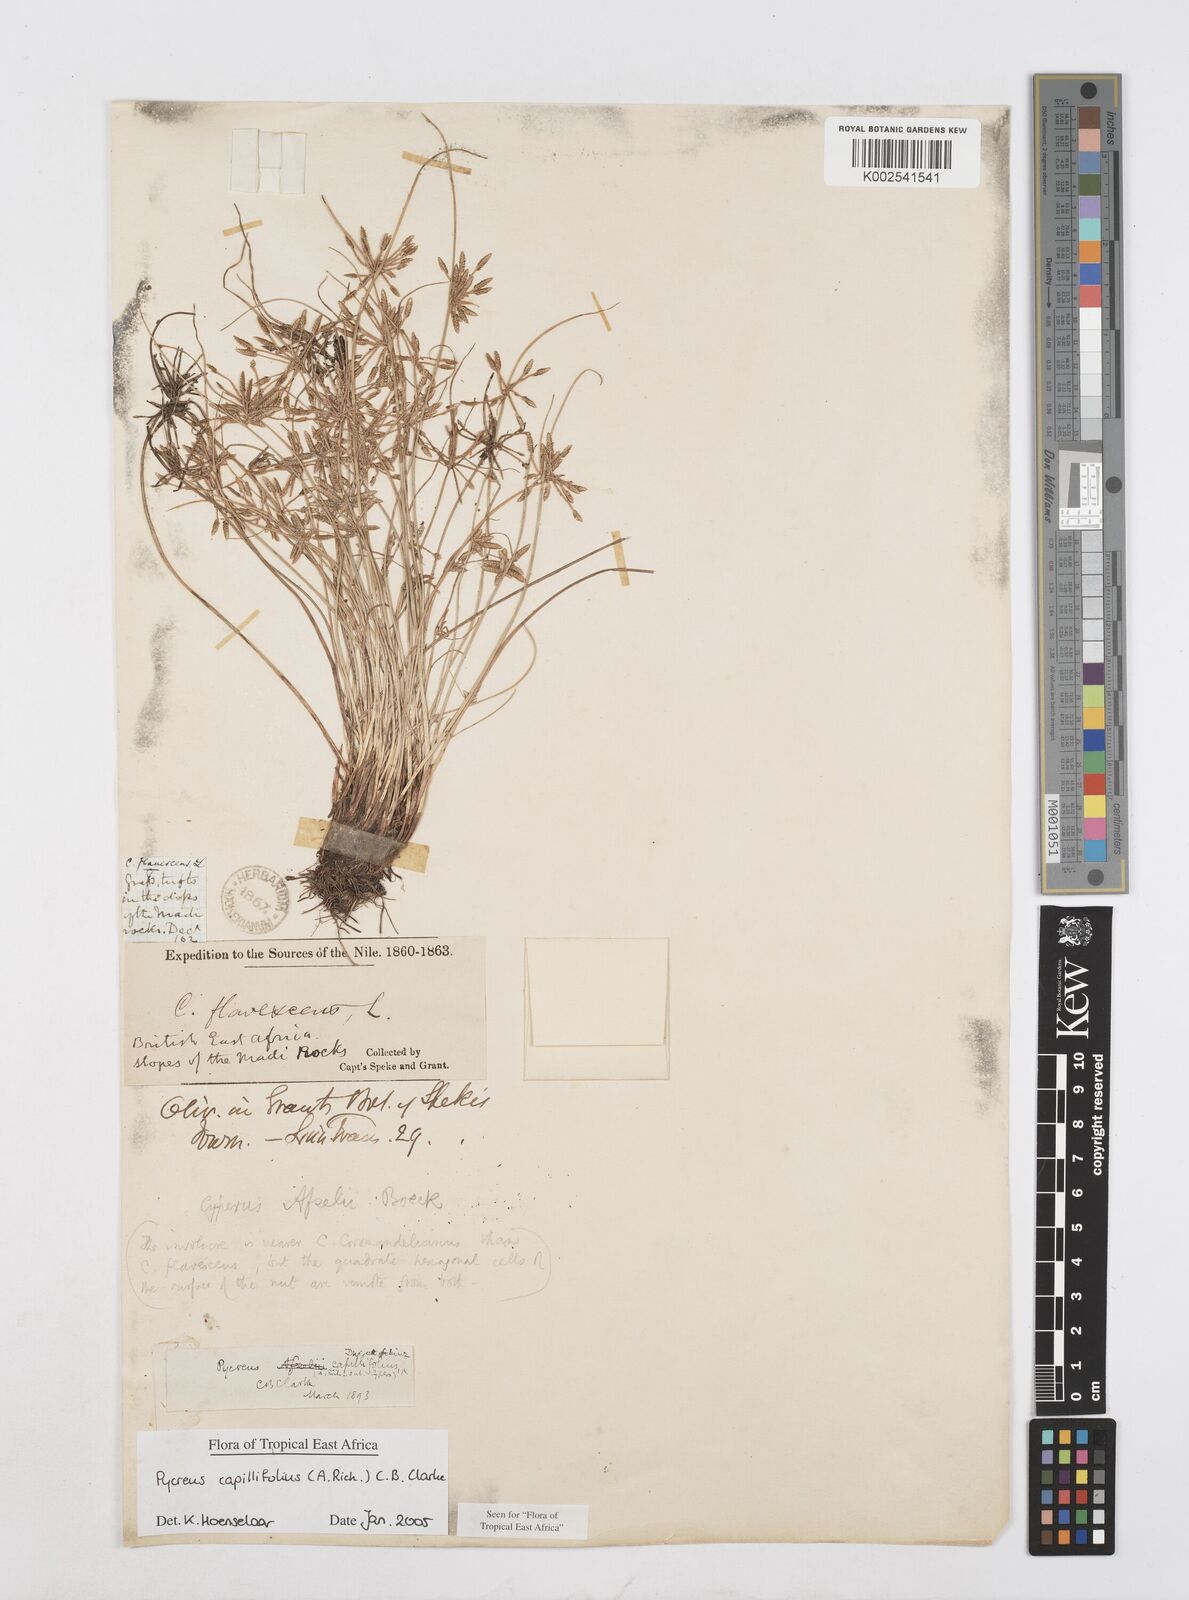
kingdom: Plantae
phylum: Tracheophyta
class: Liliopsida
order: Poales
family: Cyperaceae
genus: Cyperus
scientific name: Cyperus capillifolius
